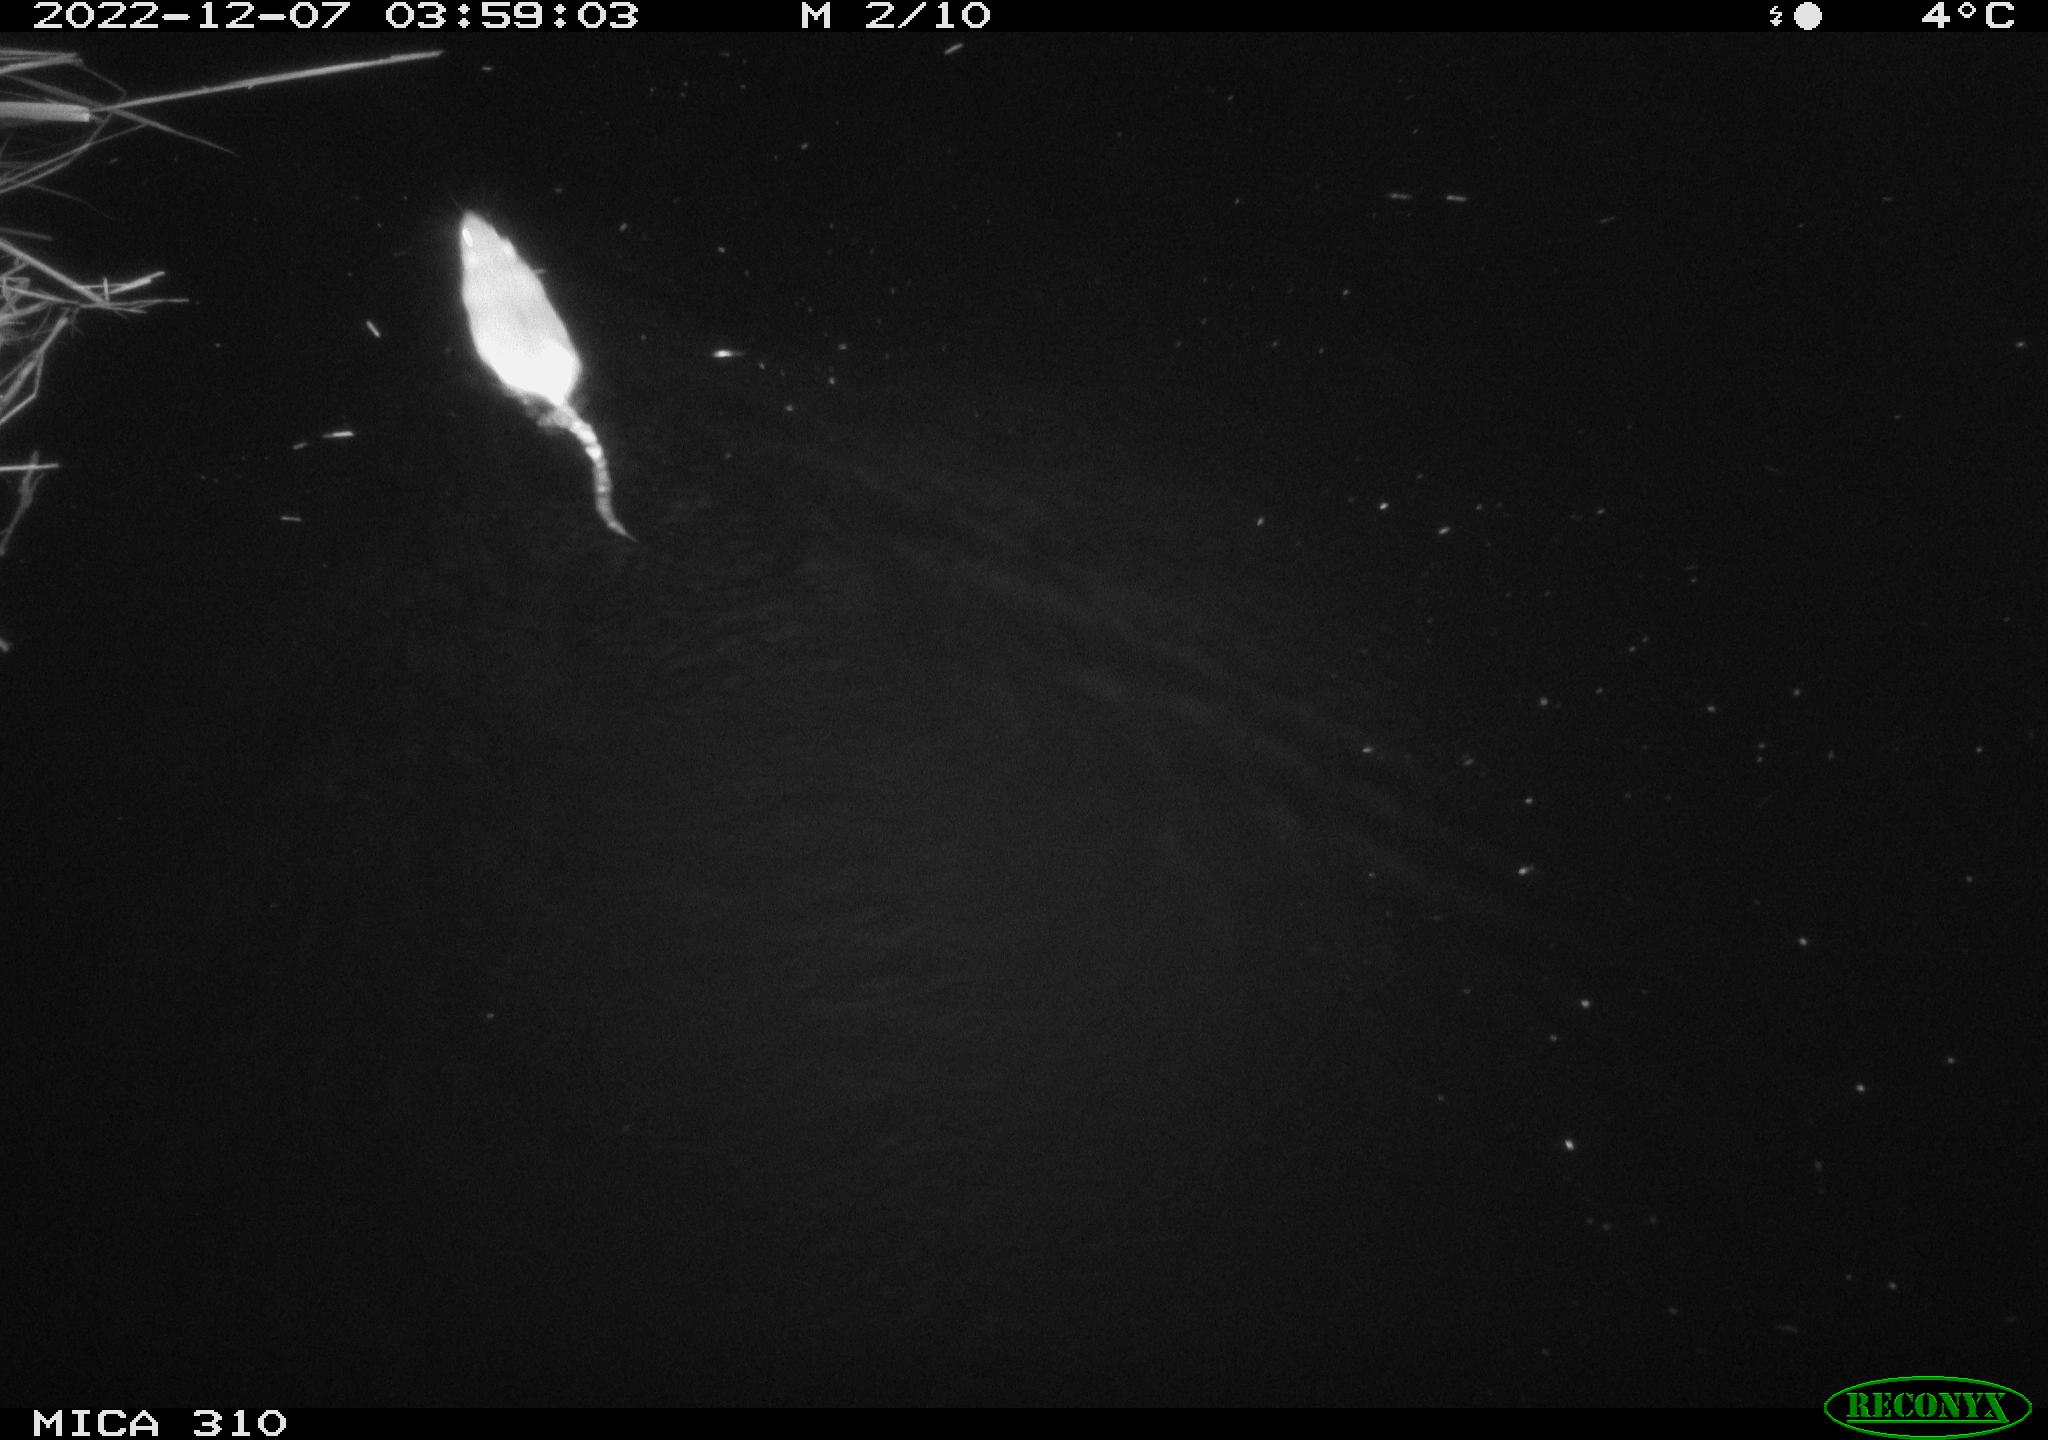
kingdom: Animalia
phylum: Chordata
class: Mammalia
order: Rodentia
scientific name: Rodentia
